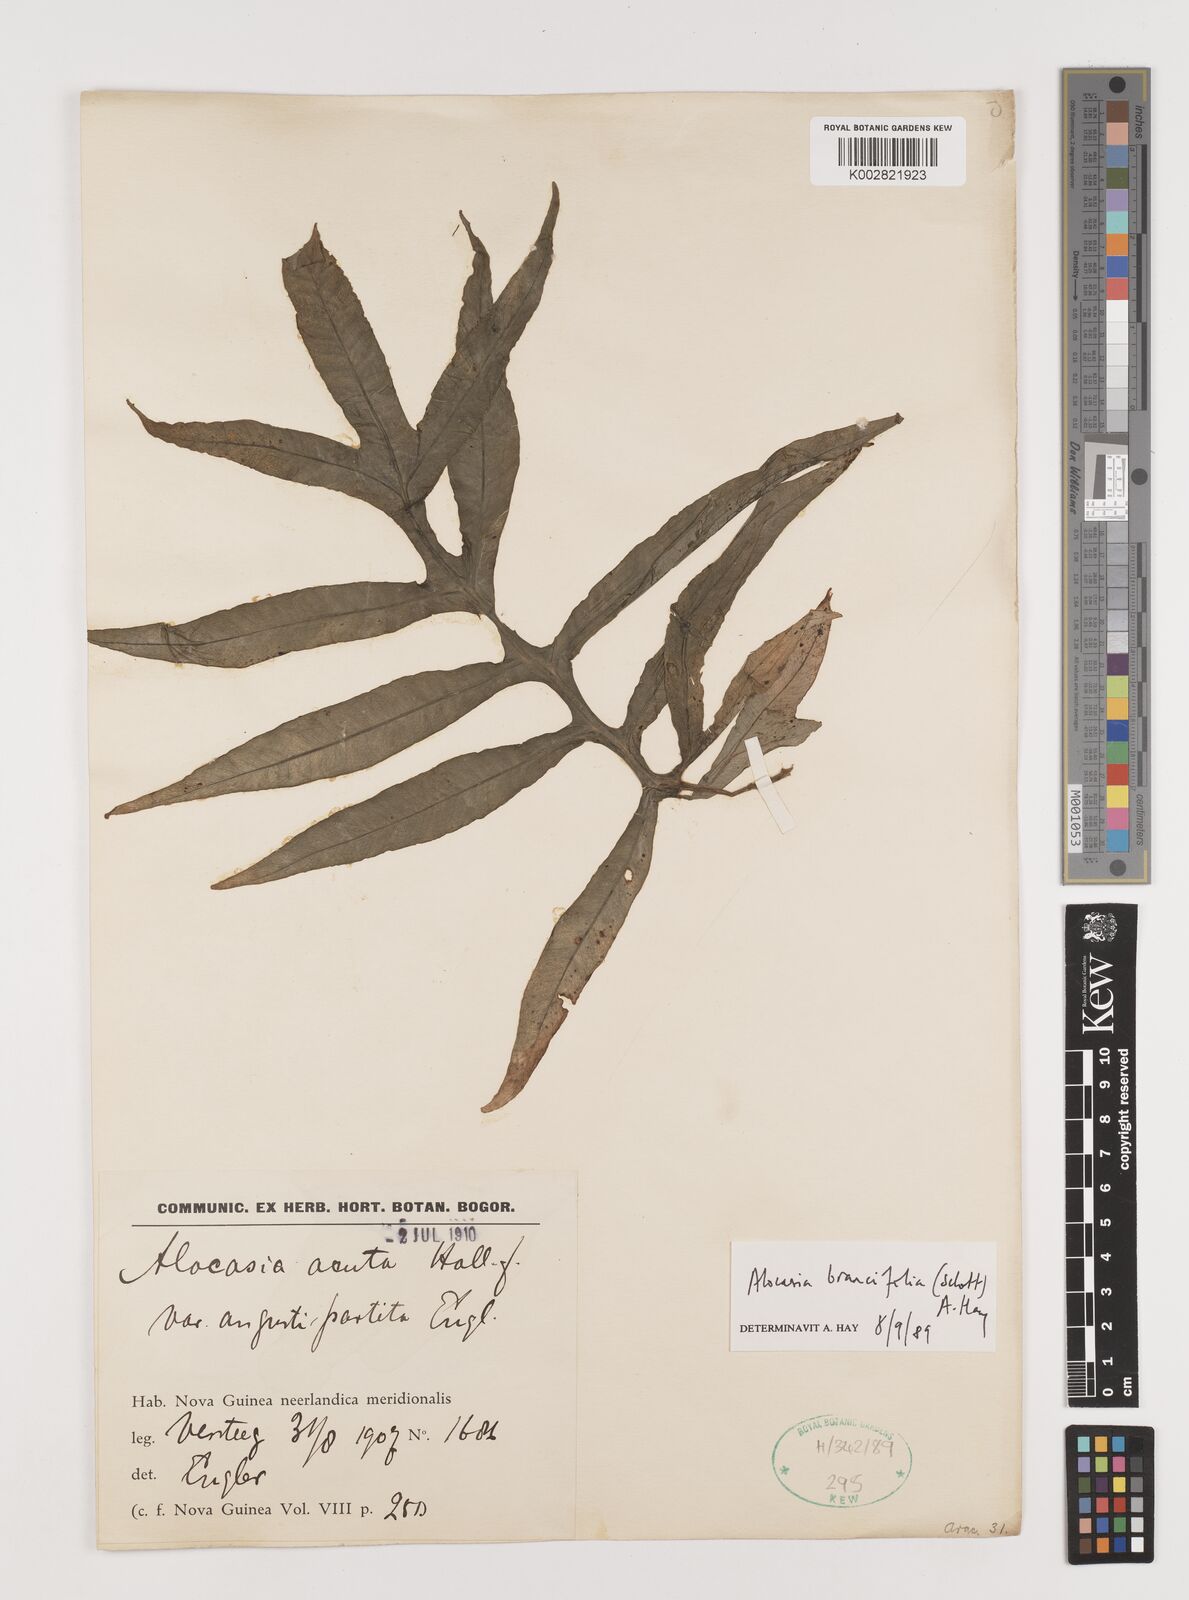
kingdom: Plantae
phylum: Tracheophyta
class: Liliopsida
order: Alismatales
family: Araceae
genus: Alocasia
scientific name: Alocasia brancifolia
